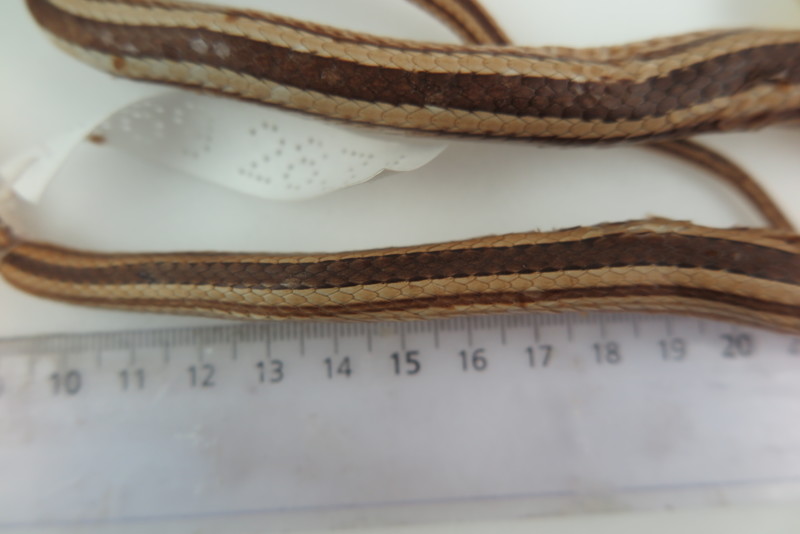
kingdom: Animalia
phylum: Chordata
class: Squamata
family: Psammophiidae
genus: Mimophis
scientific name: Mimophis
